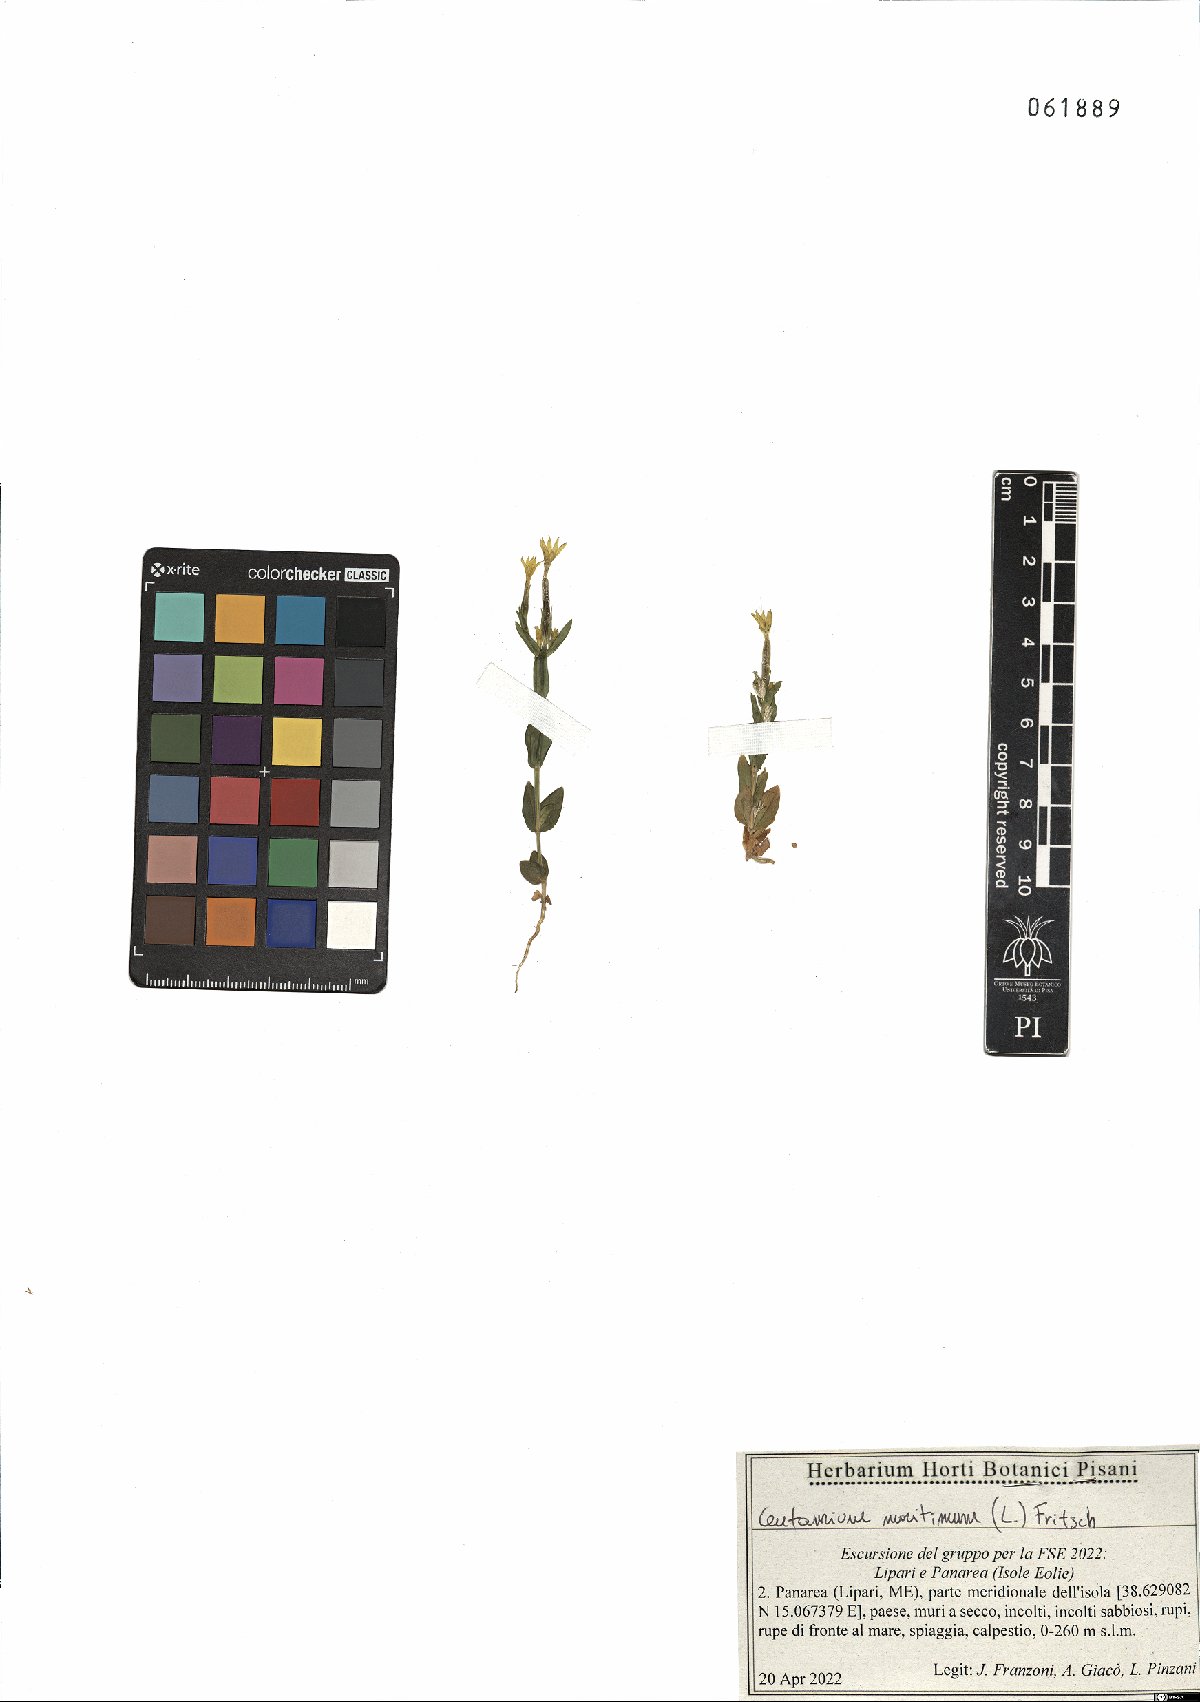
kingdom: Plantae
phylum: Tracheophyta
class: Magnoliopsida
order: Gentianales
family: Gentianaceae
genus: Centaurium
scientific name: Centaurium maritimum
